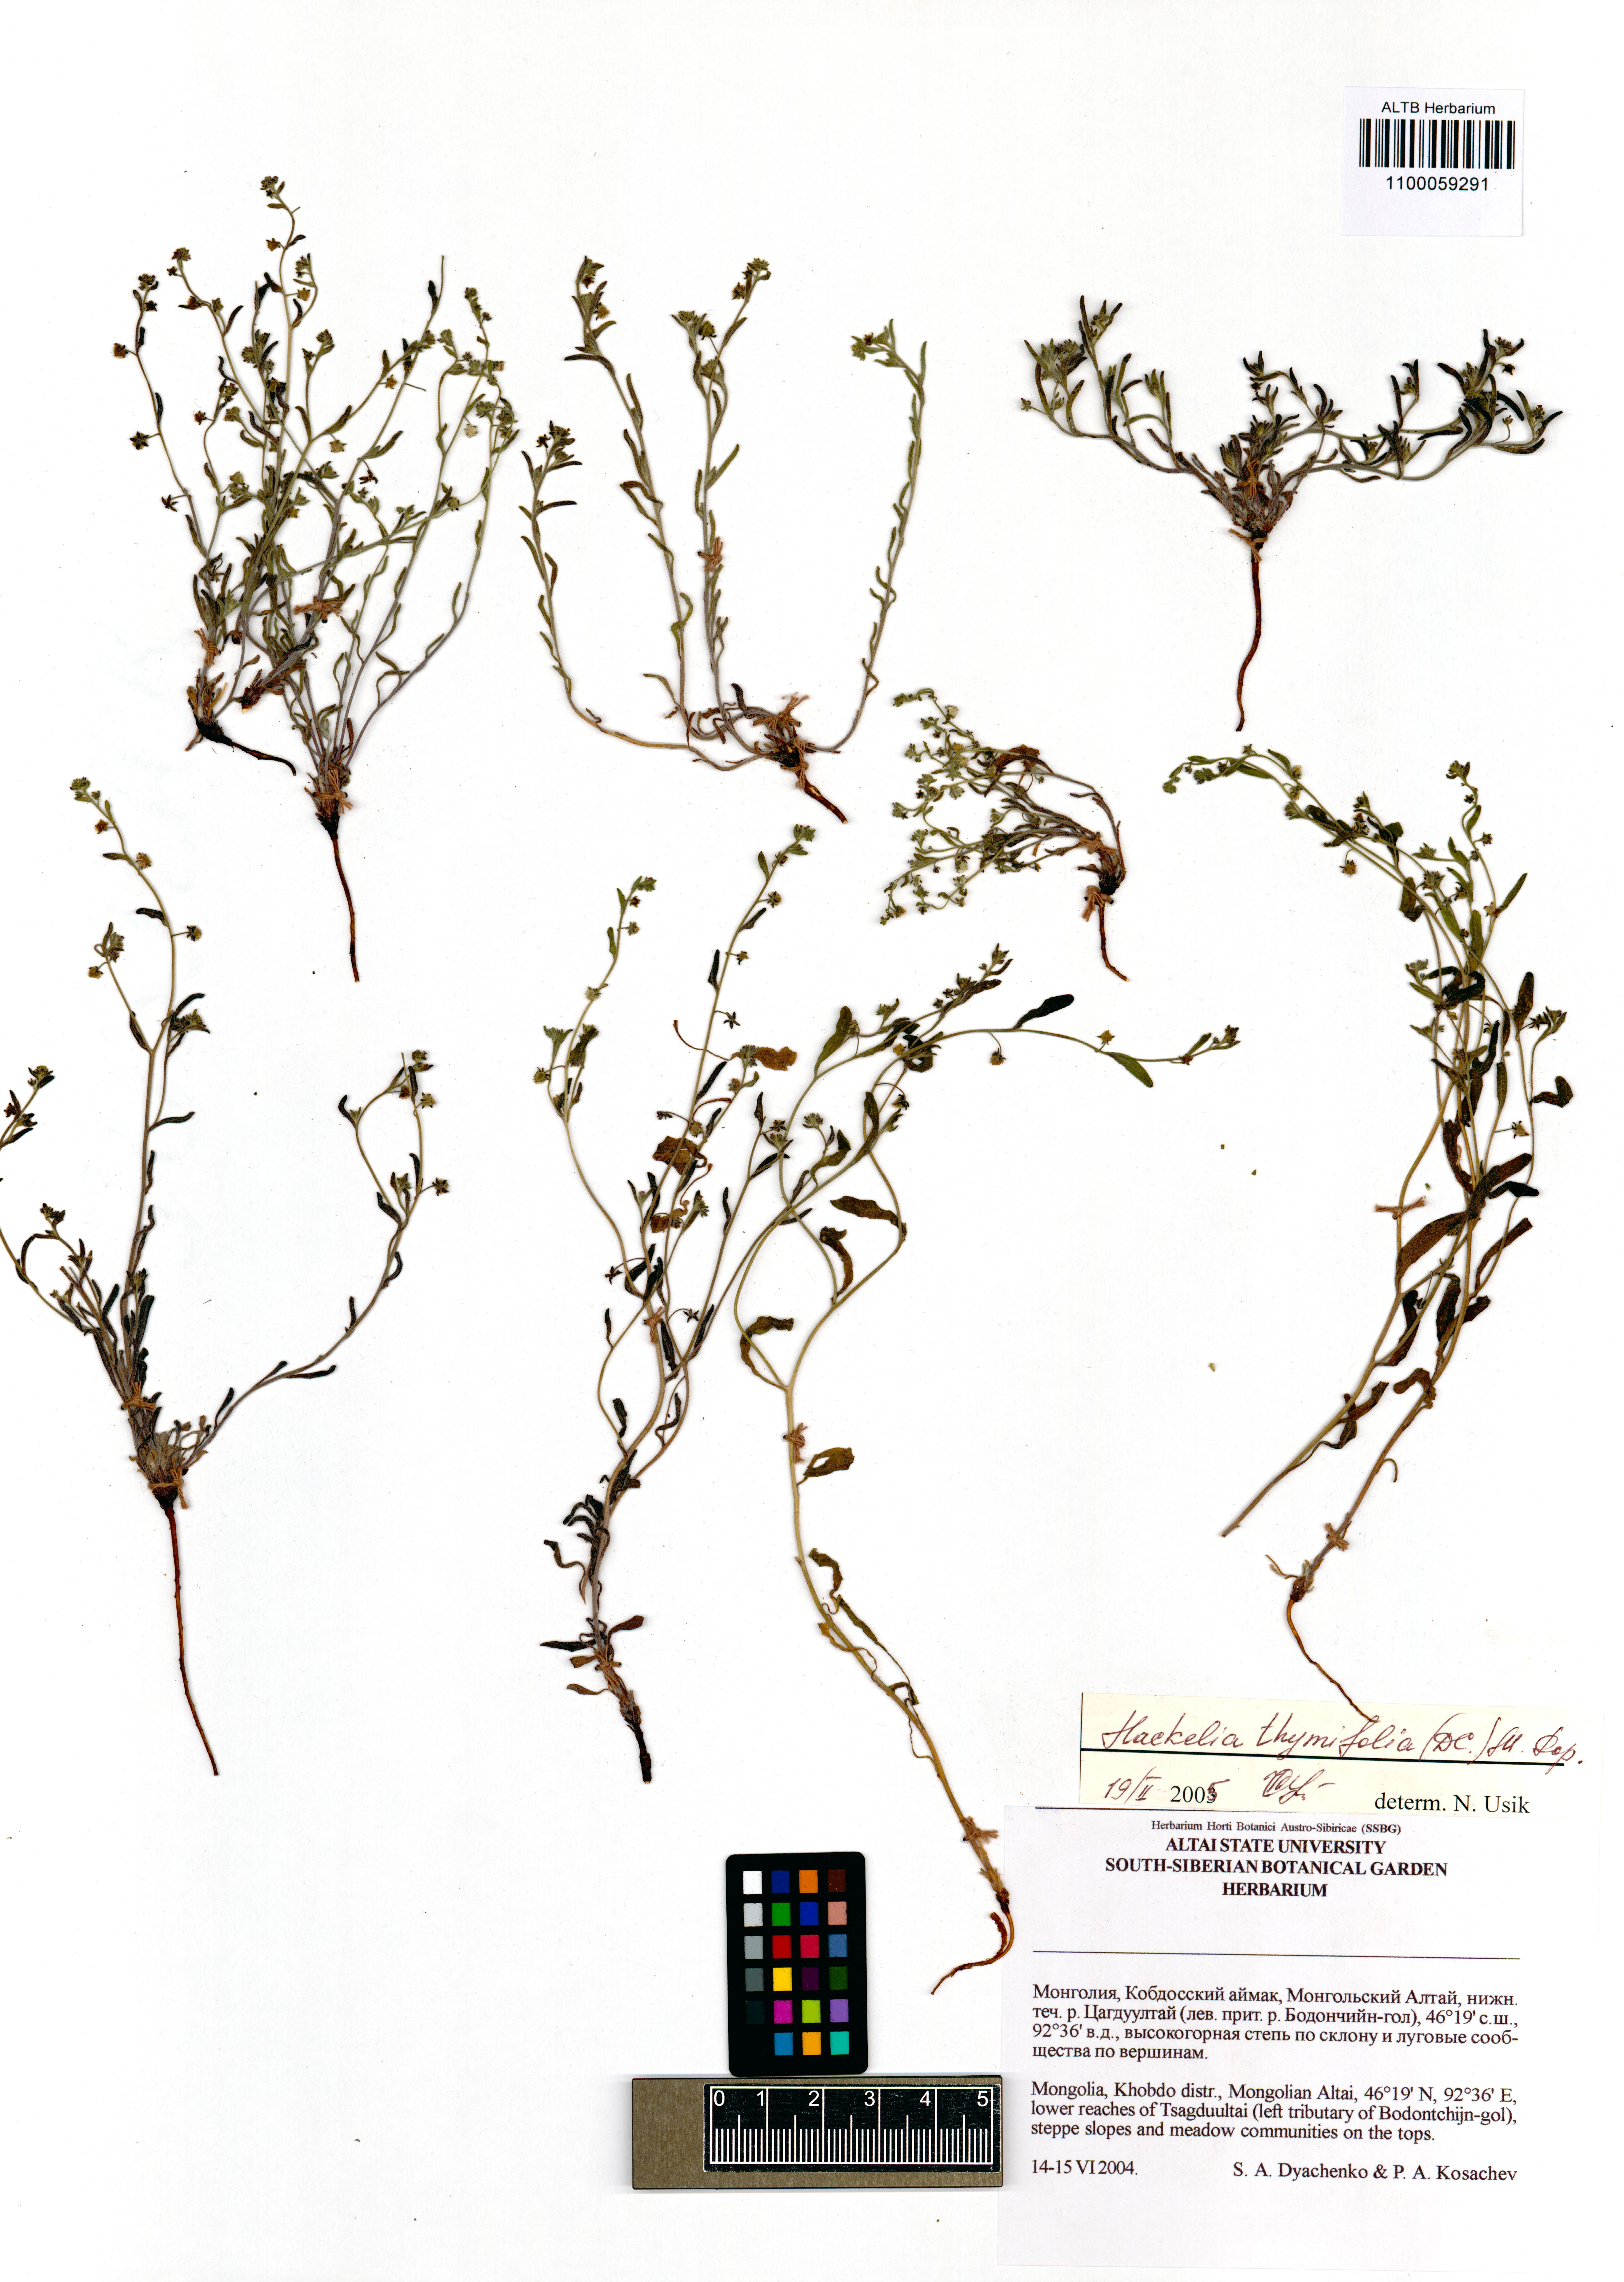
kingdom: Plantae
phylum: Tracheophyta
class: Magnoliopsida
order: Boraginales
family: Boraginaceae
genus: Eritrichium
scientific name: Eritrichium thymifolium
